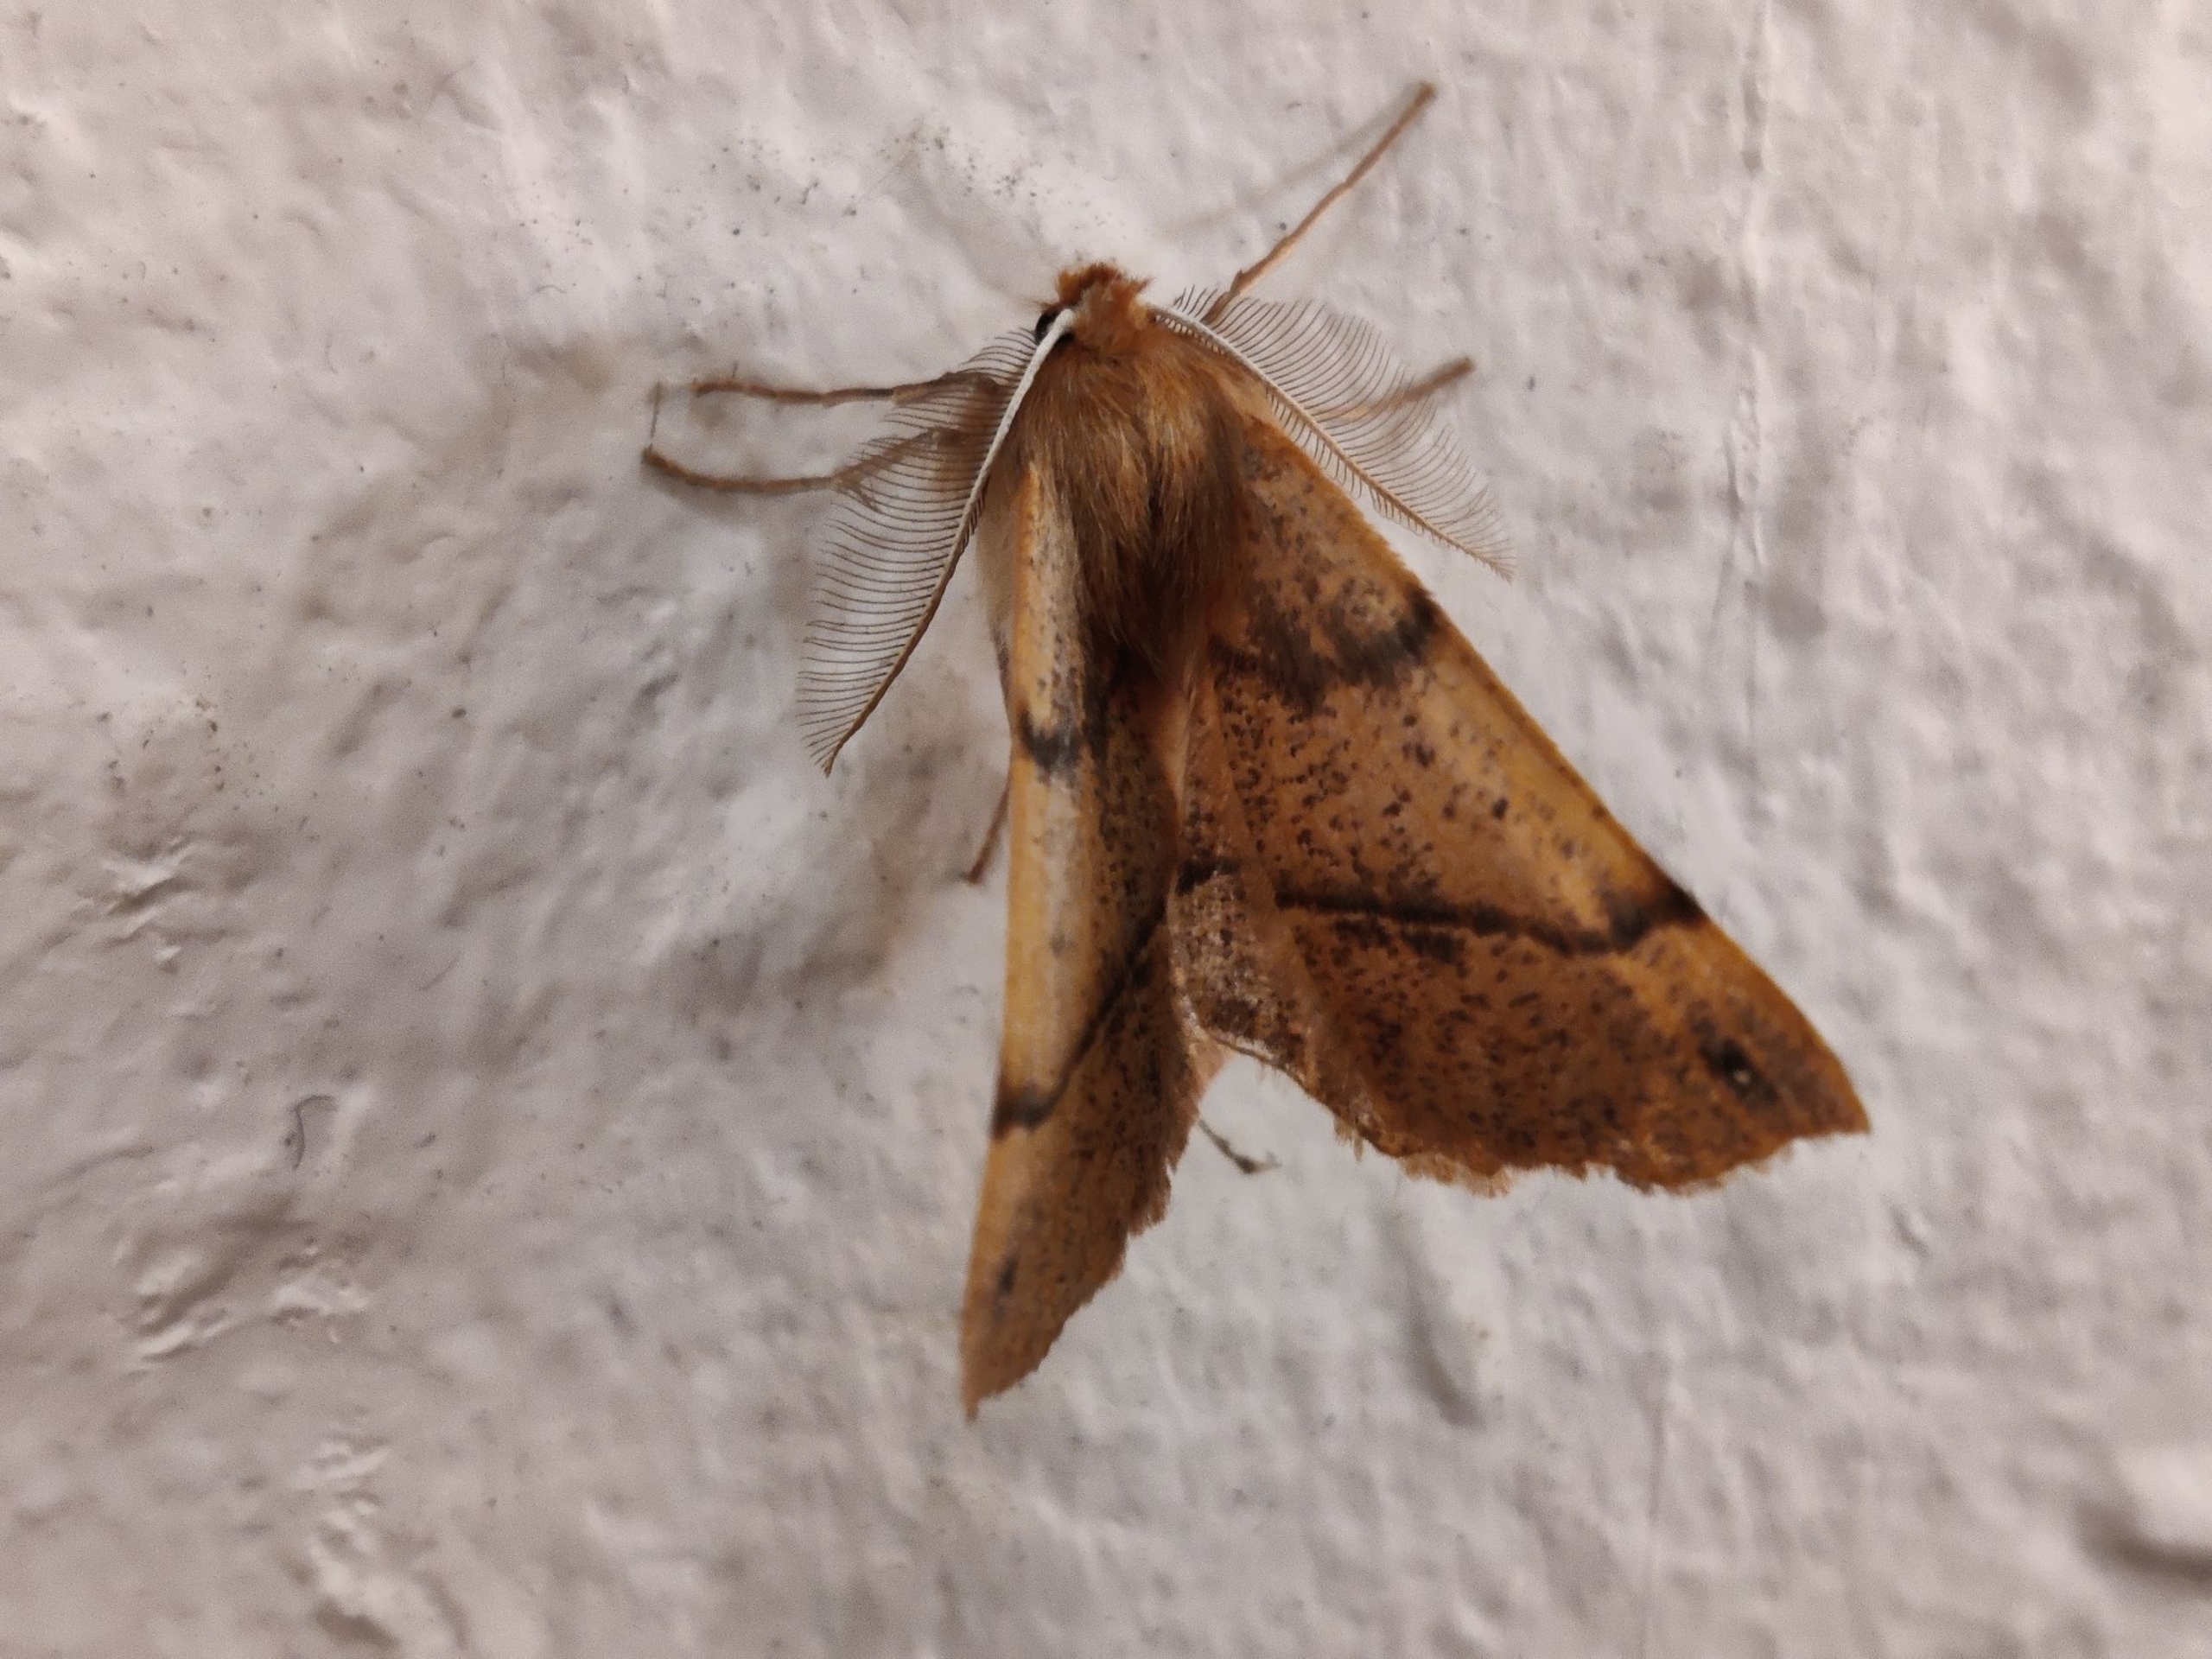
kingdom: Animalia
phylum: Arthropoda
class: Insecta
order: Lepidoptera
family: Geometridae
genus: Colotois
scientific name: Colotois pennaria
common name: Løvfaldsmåler
